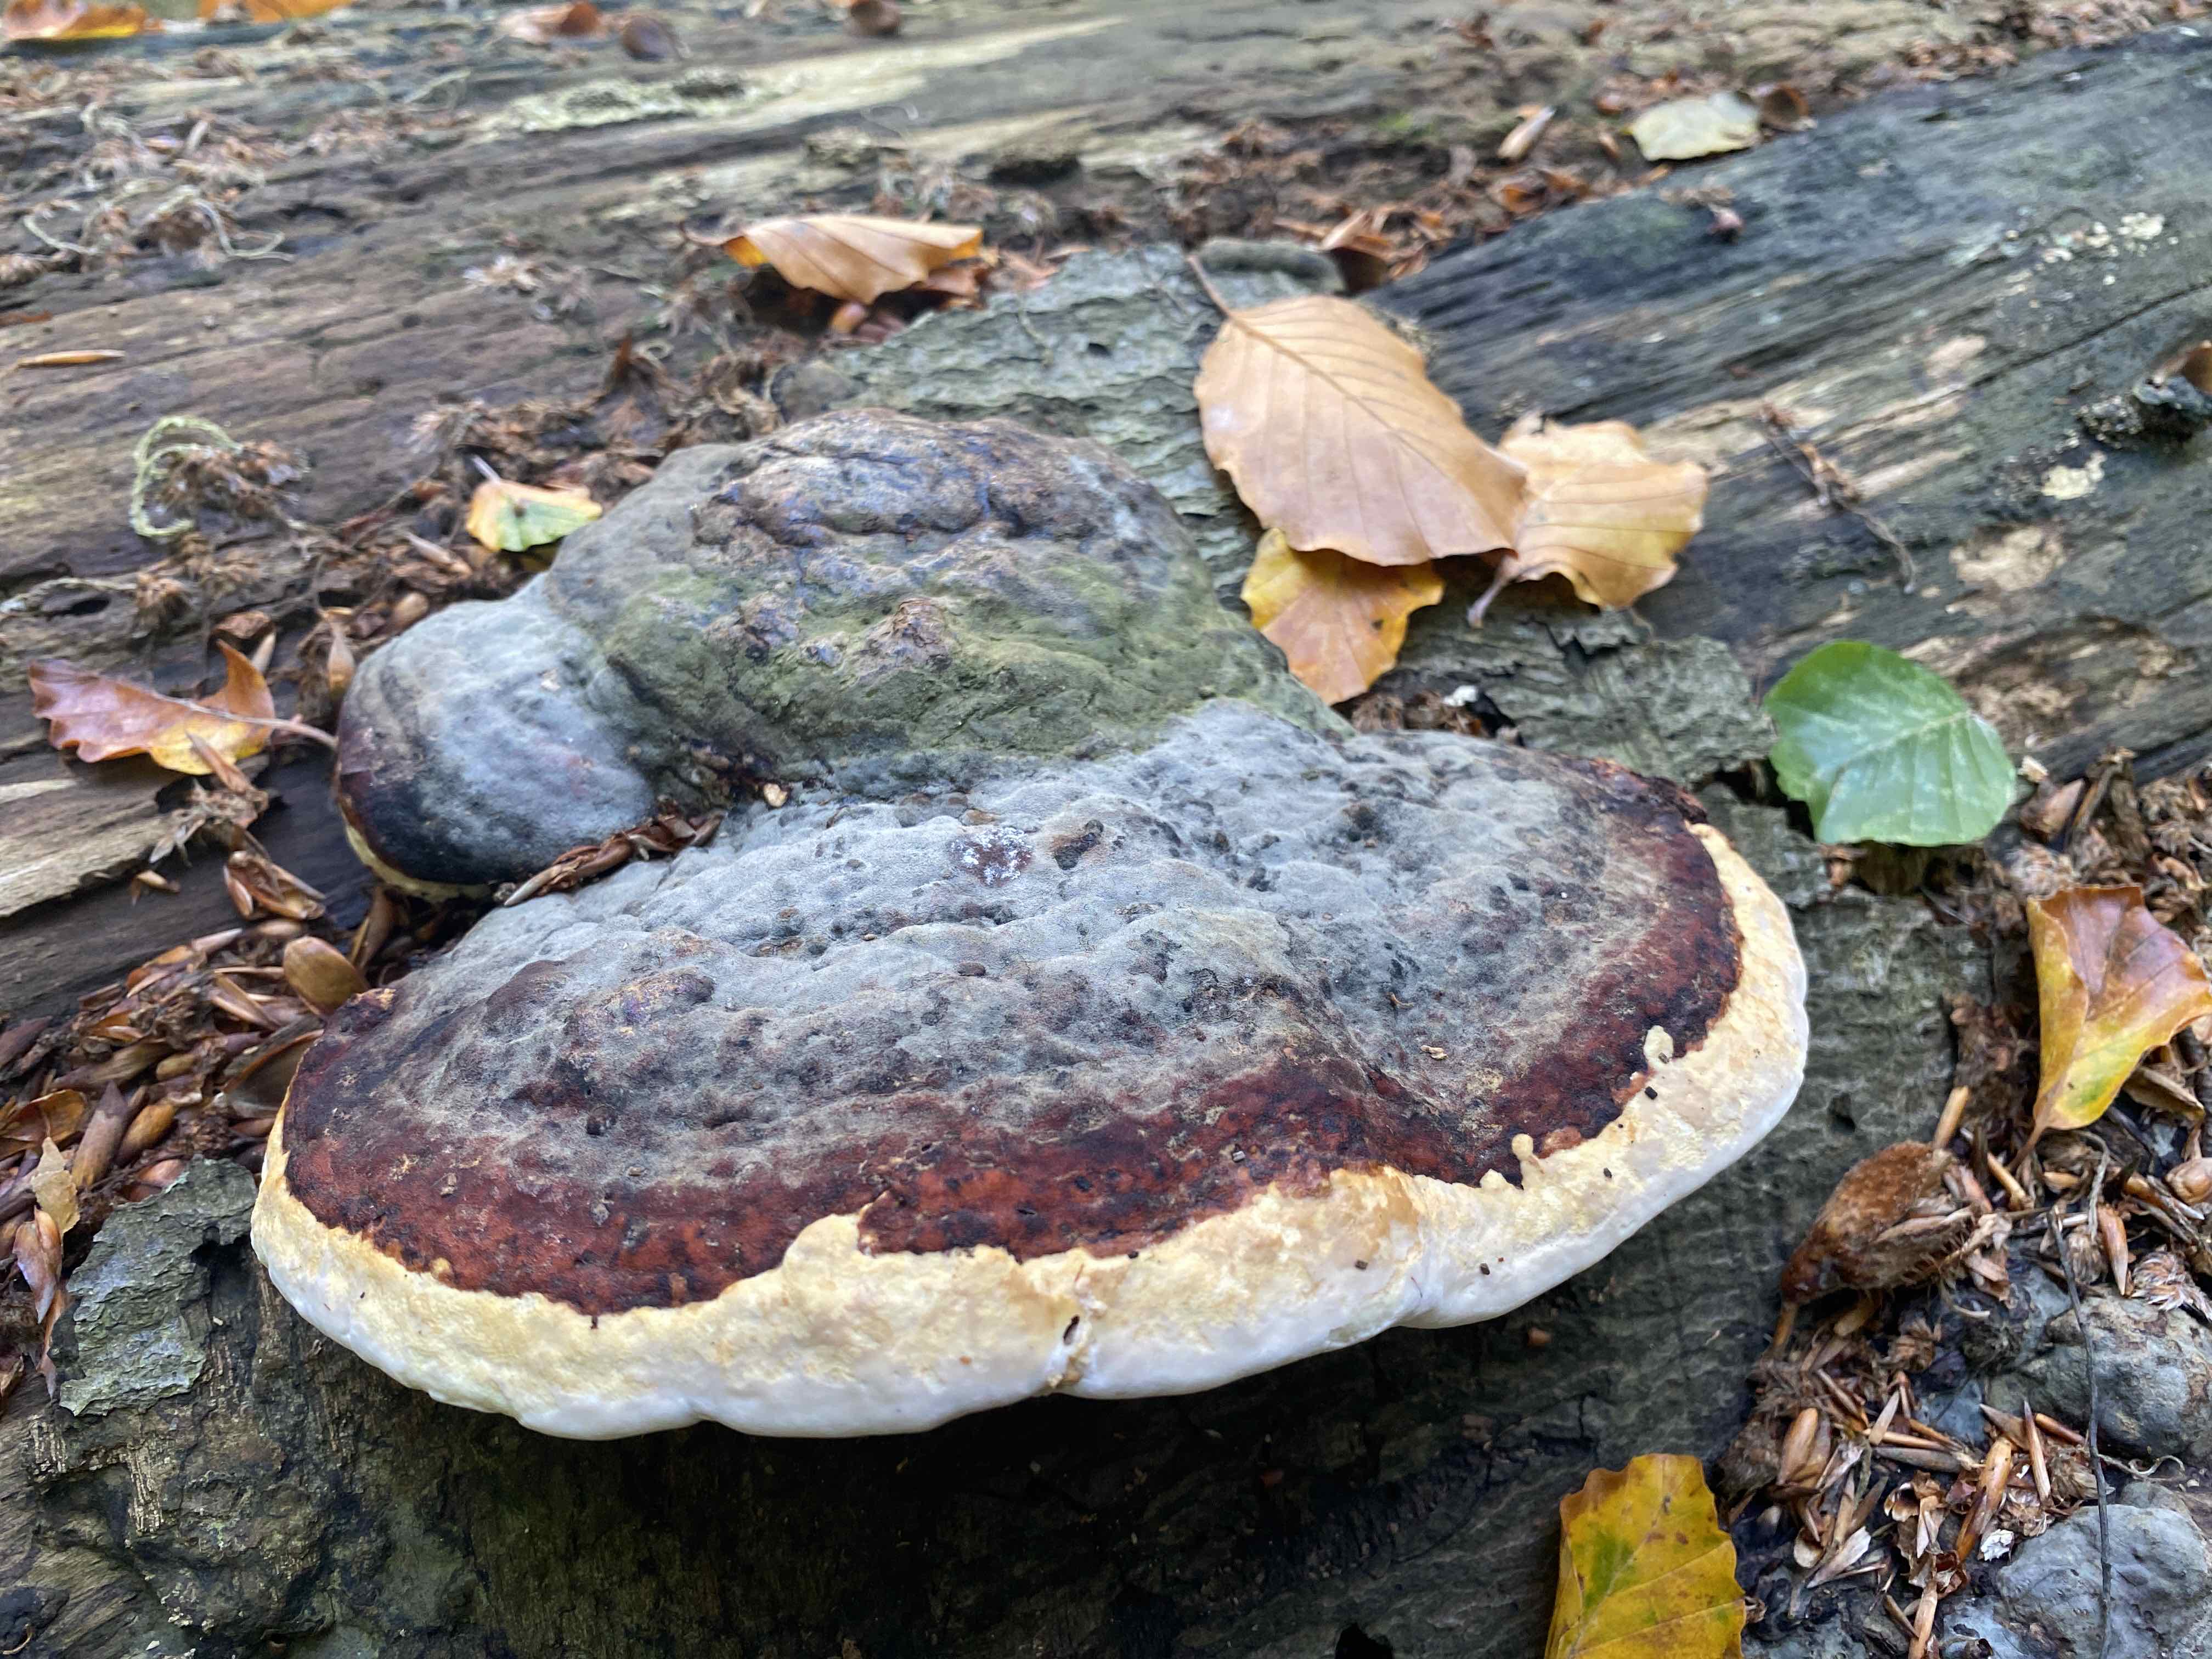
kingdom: Fungi
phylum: Basidiomycota
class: Agaricomycetes
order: Polyporales
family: Fomitopsidaceae
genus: Fomitopsis
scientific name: Fomitopsis pinicola
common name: randbæltet hovporesvamp
